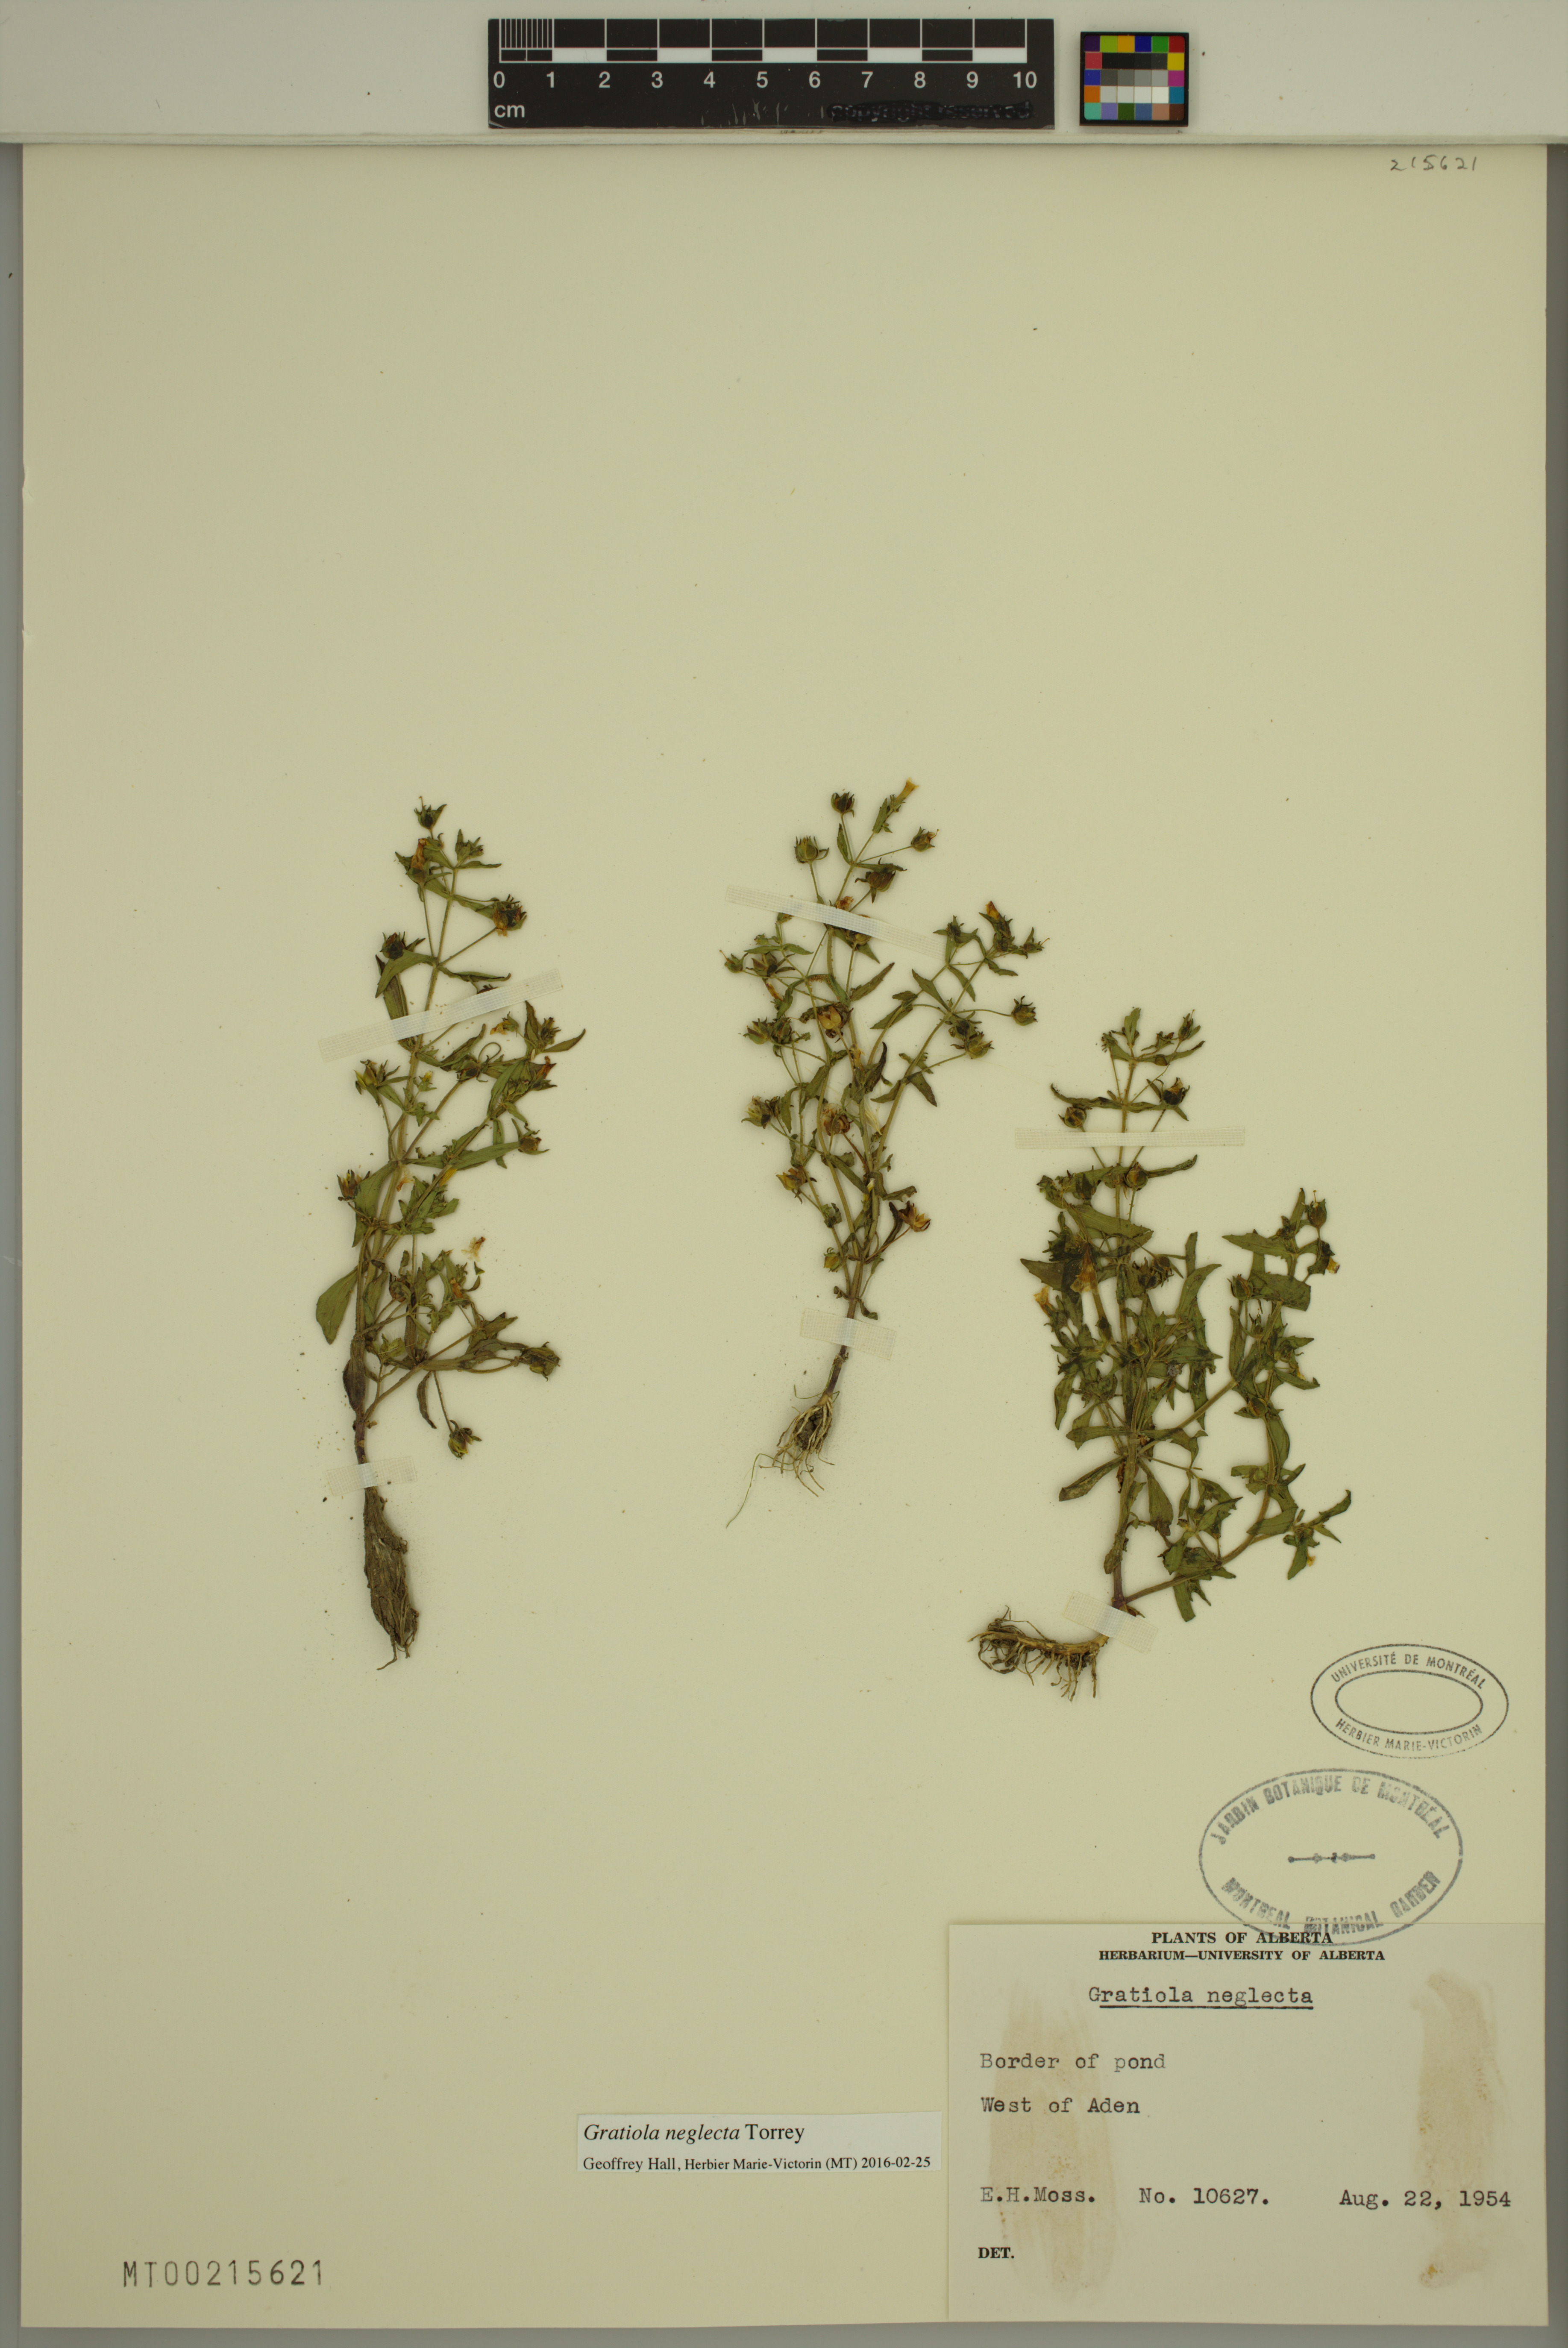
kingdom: Plantae
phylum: Tracheophyta
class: Magnoliopsida
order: Lamiales
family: Plantaginaceae
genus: Gratiola
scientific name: Gratiola neglecta
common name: American hedge-hyssop
